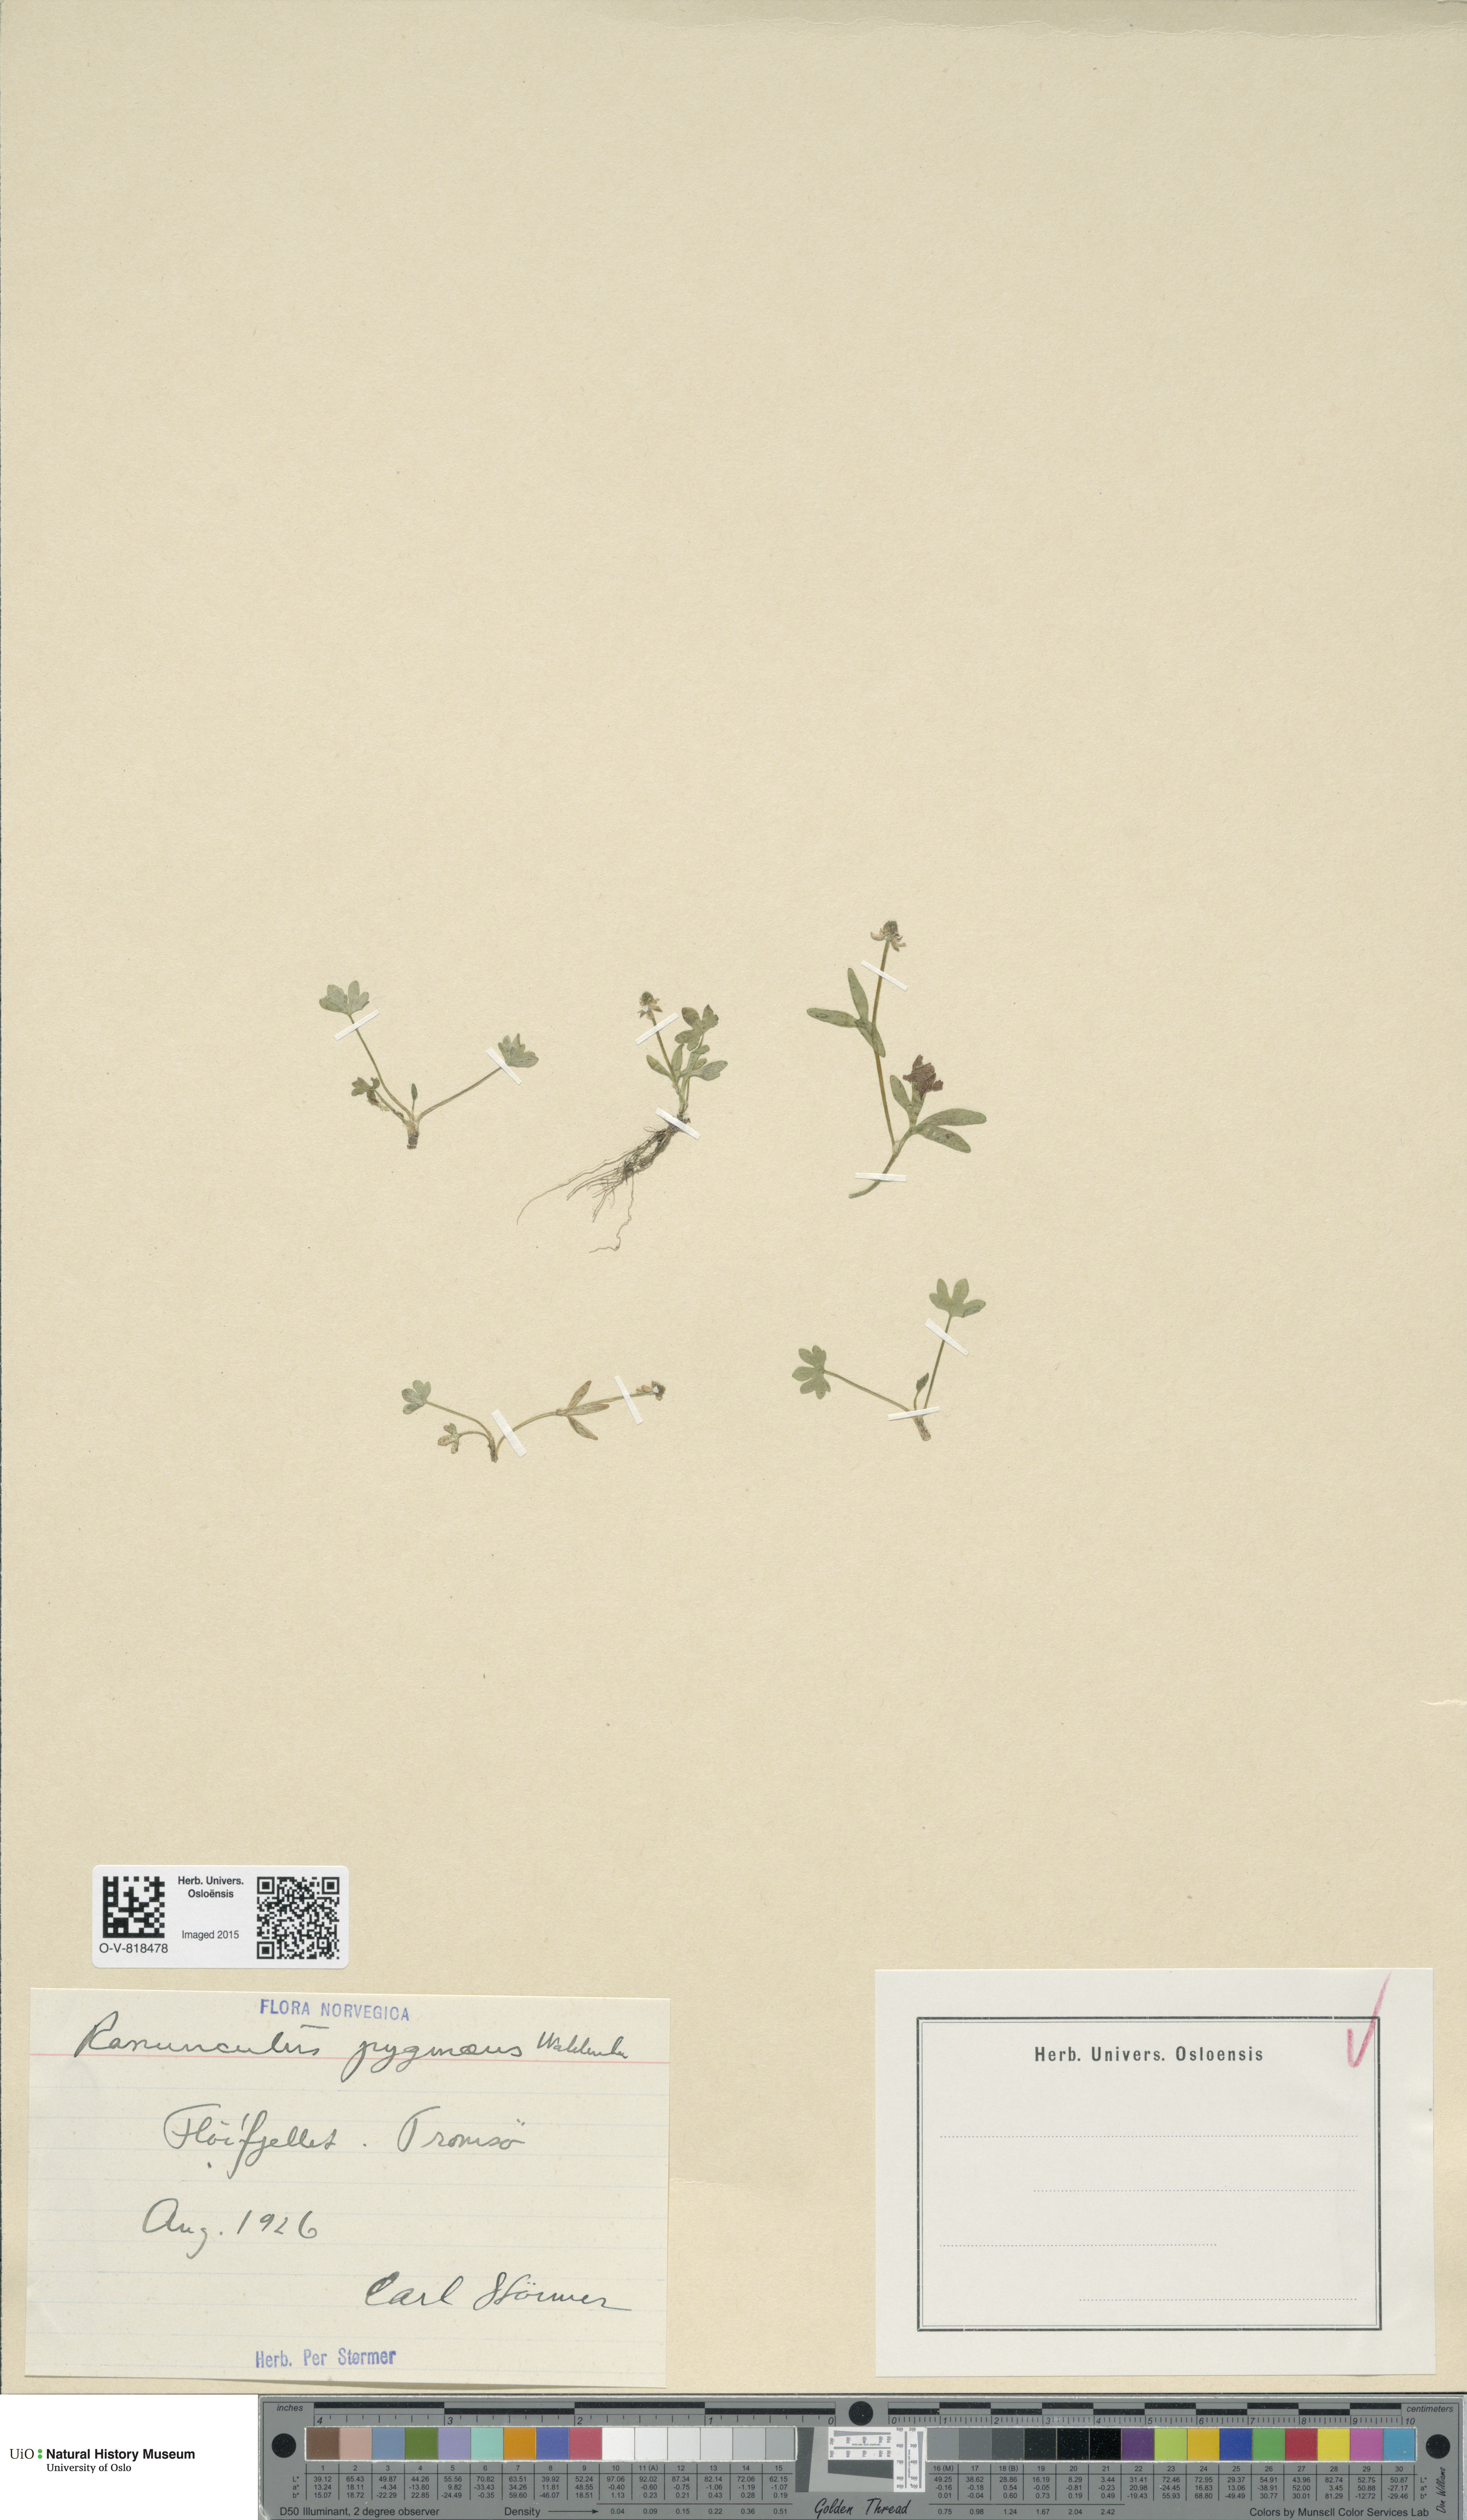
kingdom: Plantae
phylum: Tracheophyta
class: Magnoliopsida
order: Ranunculales
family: Ranunculaceae
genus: Ranunculus
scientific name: Ranunculus pygmaeus
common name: Dwarf buttercup
